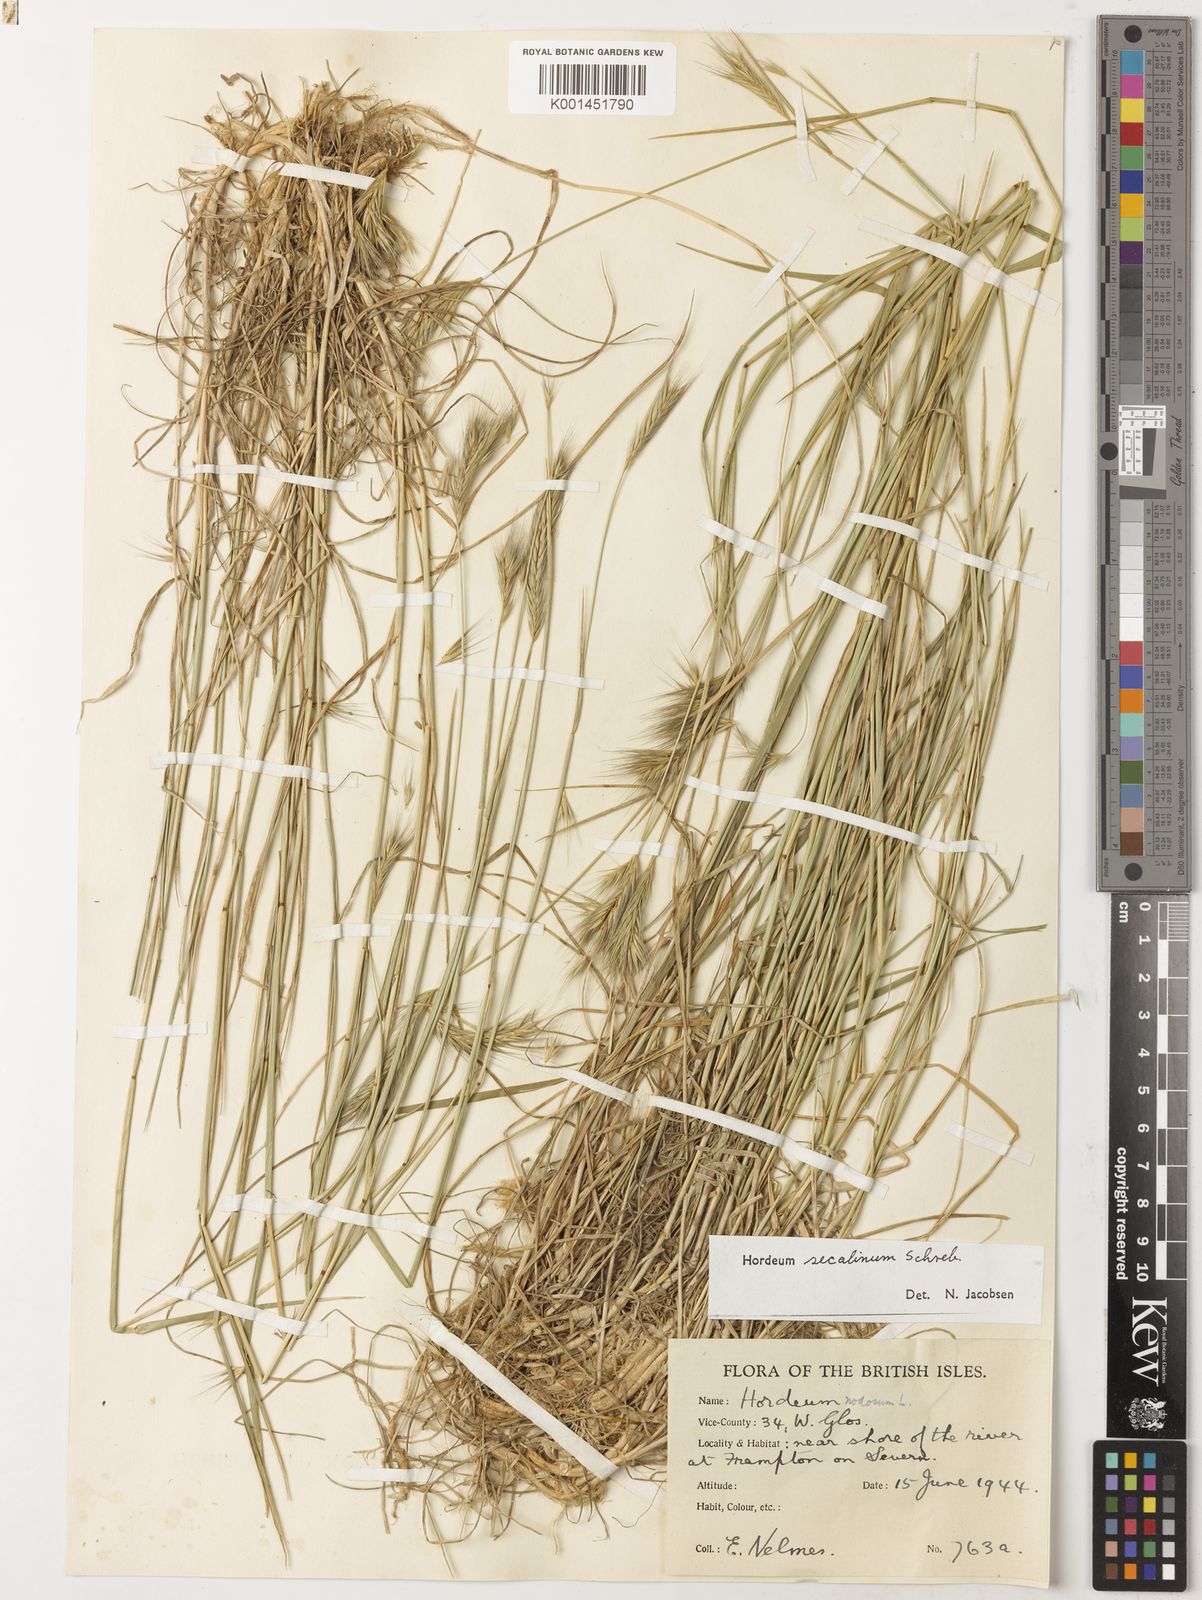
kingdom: Plantae
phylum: Tracheophyta
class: Liliopsida
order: Poales
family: Poaceae
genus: Hordeum
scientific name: Hordeum secalinum
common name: Meadow barley
